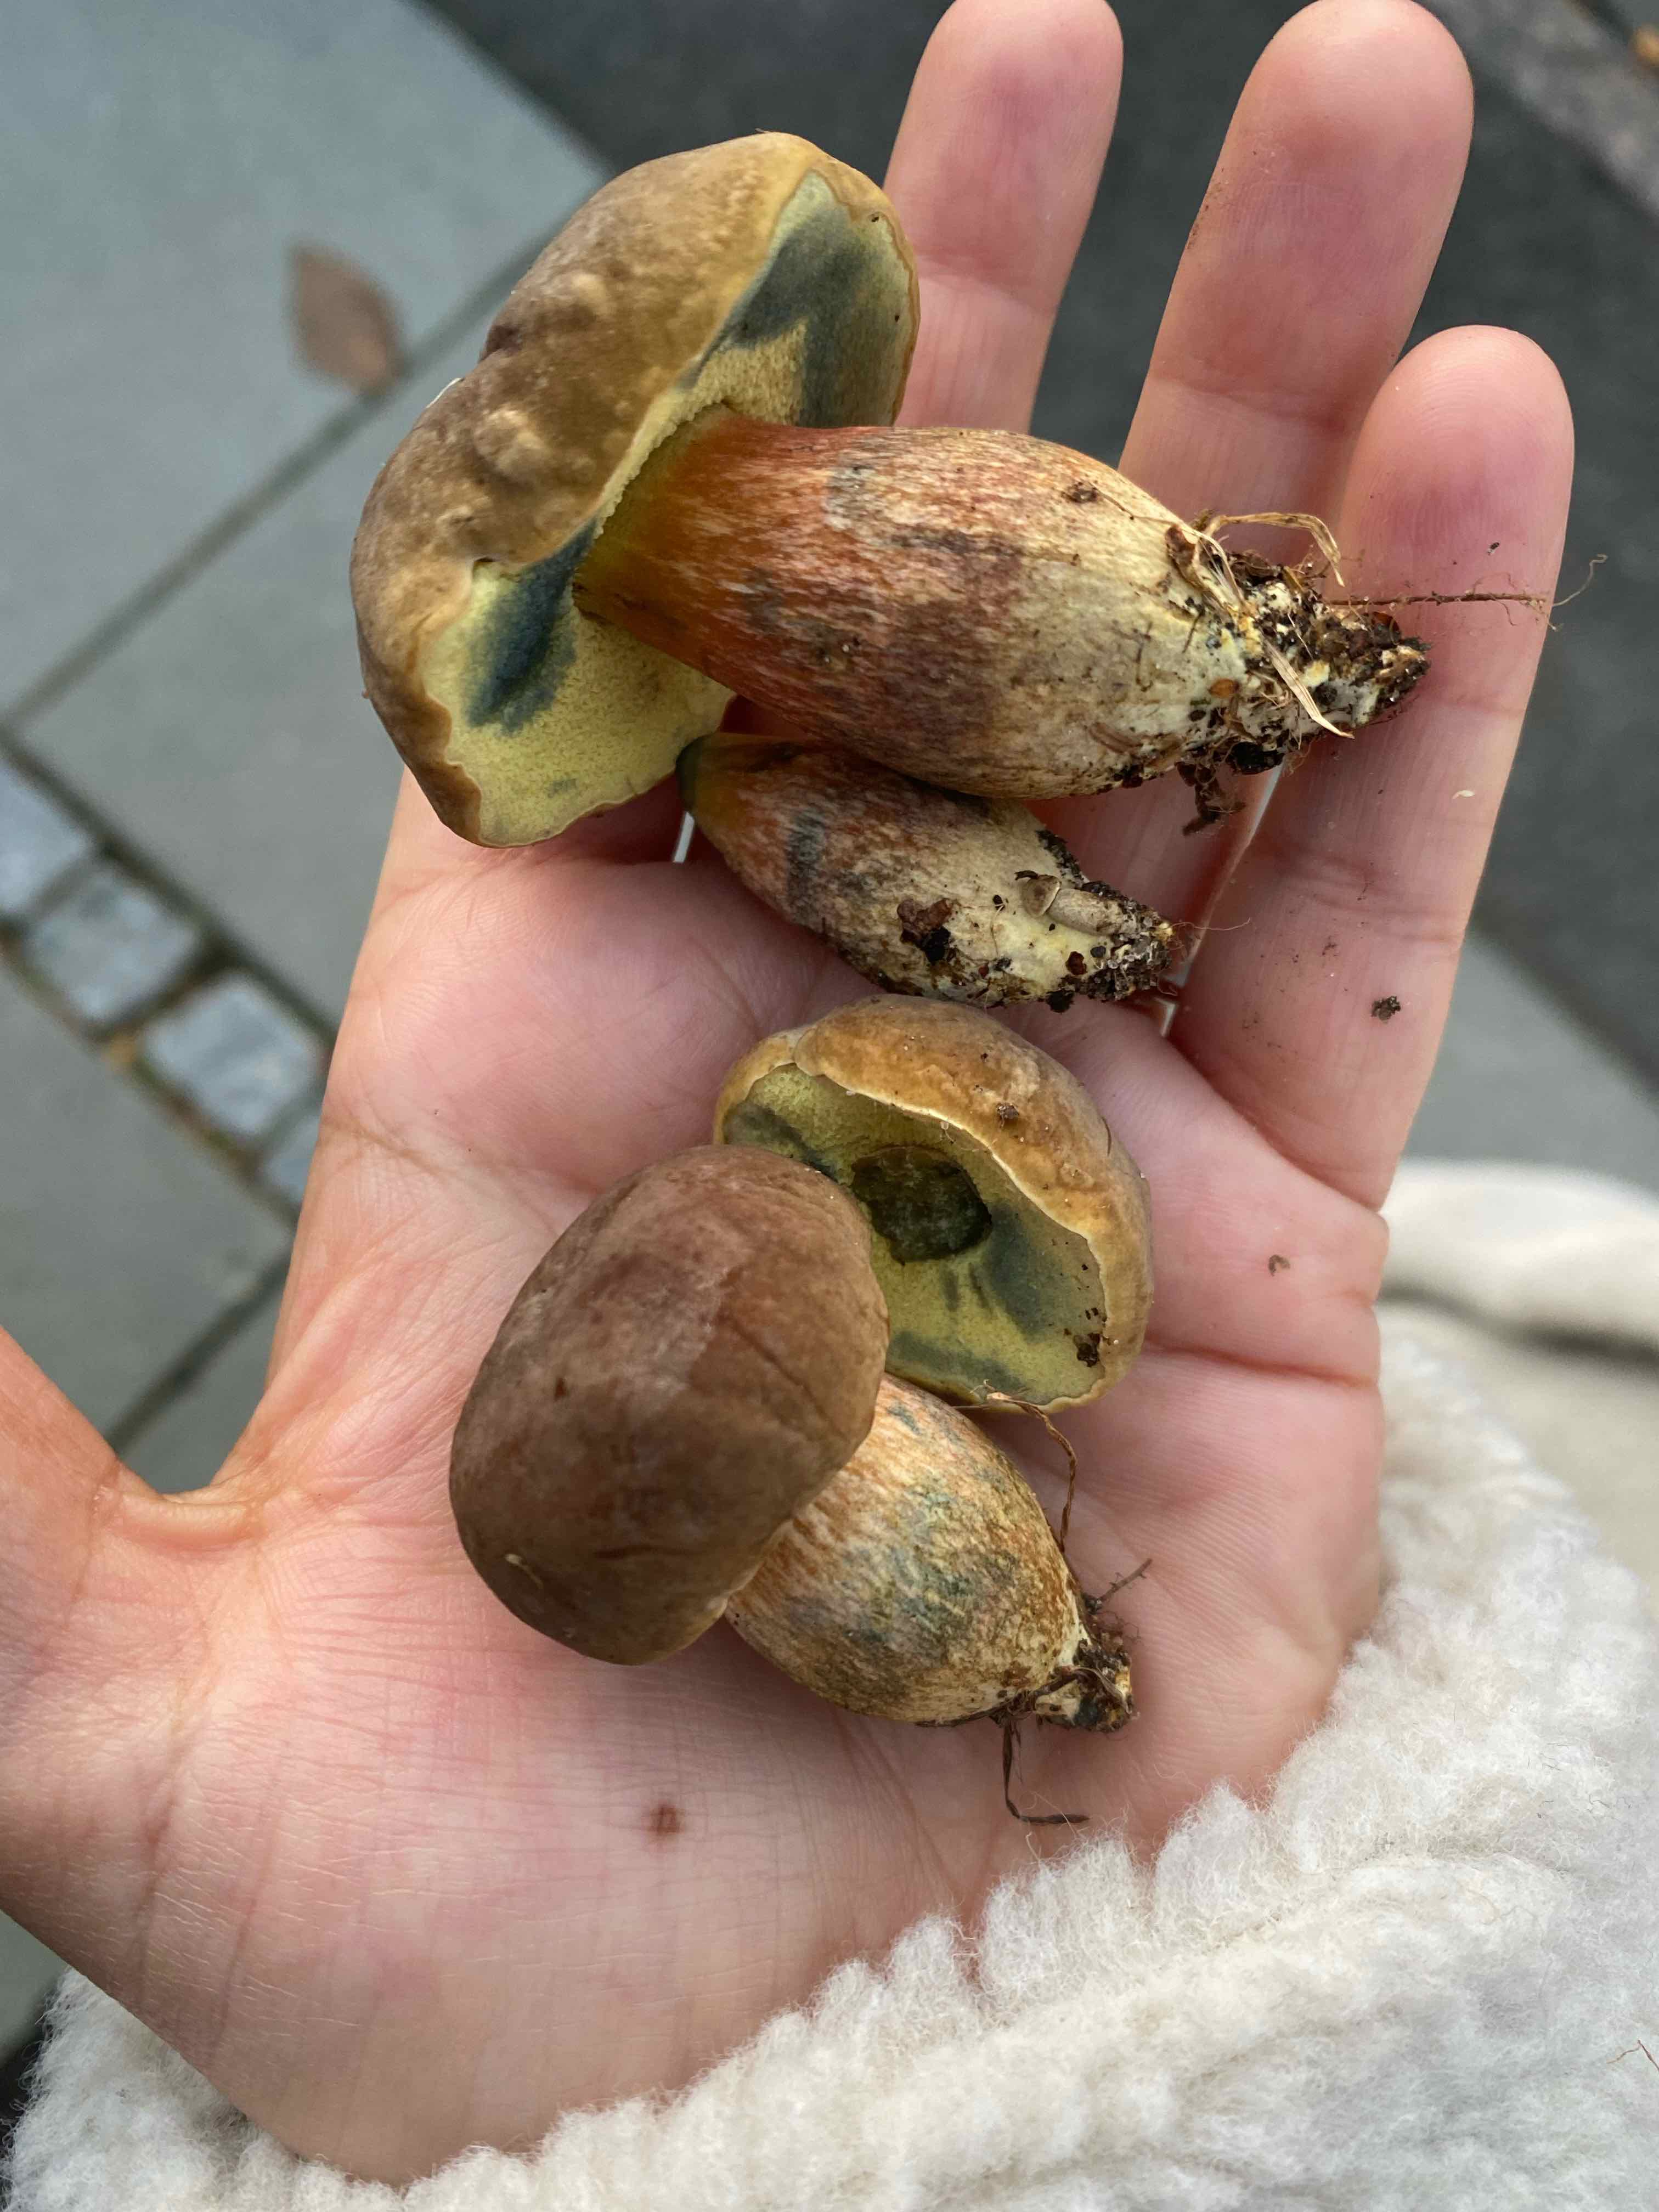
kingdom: Fungi
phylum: Basidiomycota
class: Agaricomycetes
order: Boletales
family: Boletaceae
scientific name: Boletaceae
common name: rørhatfamilien
